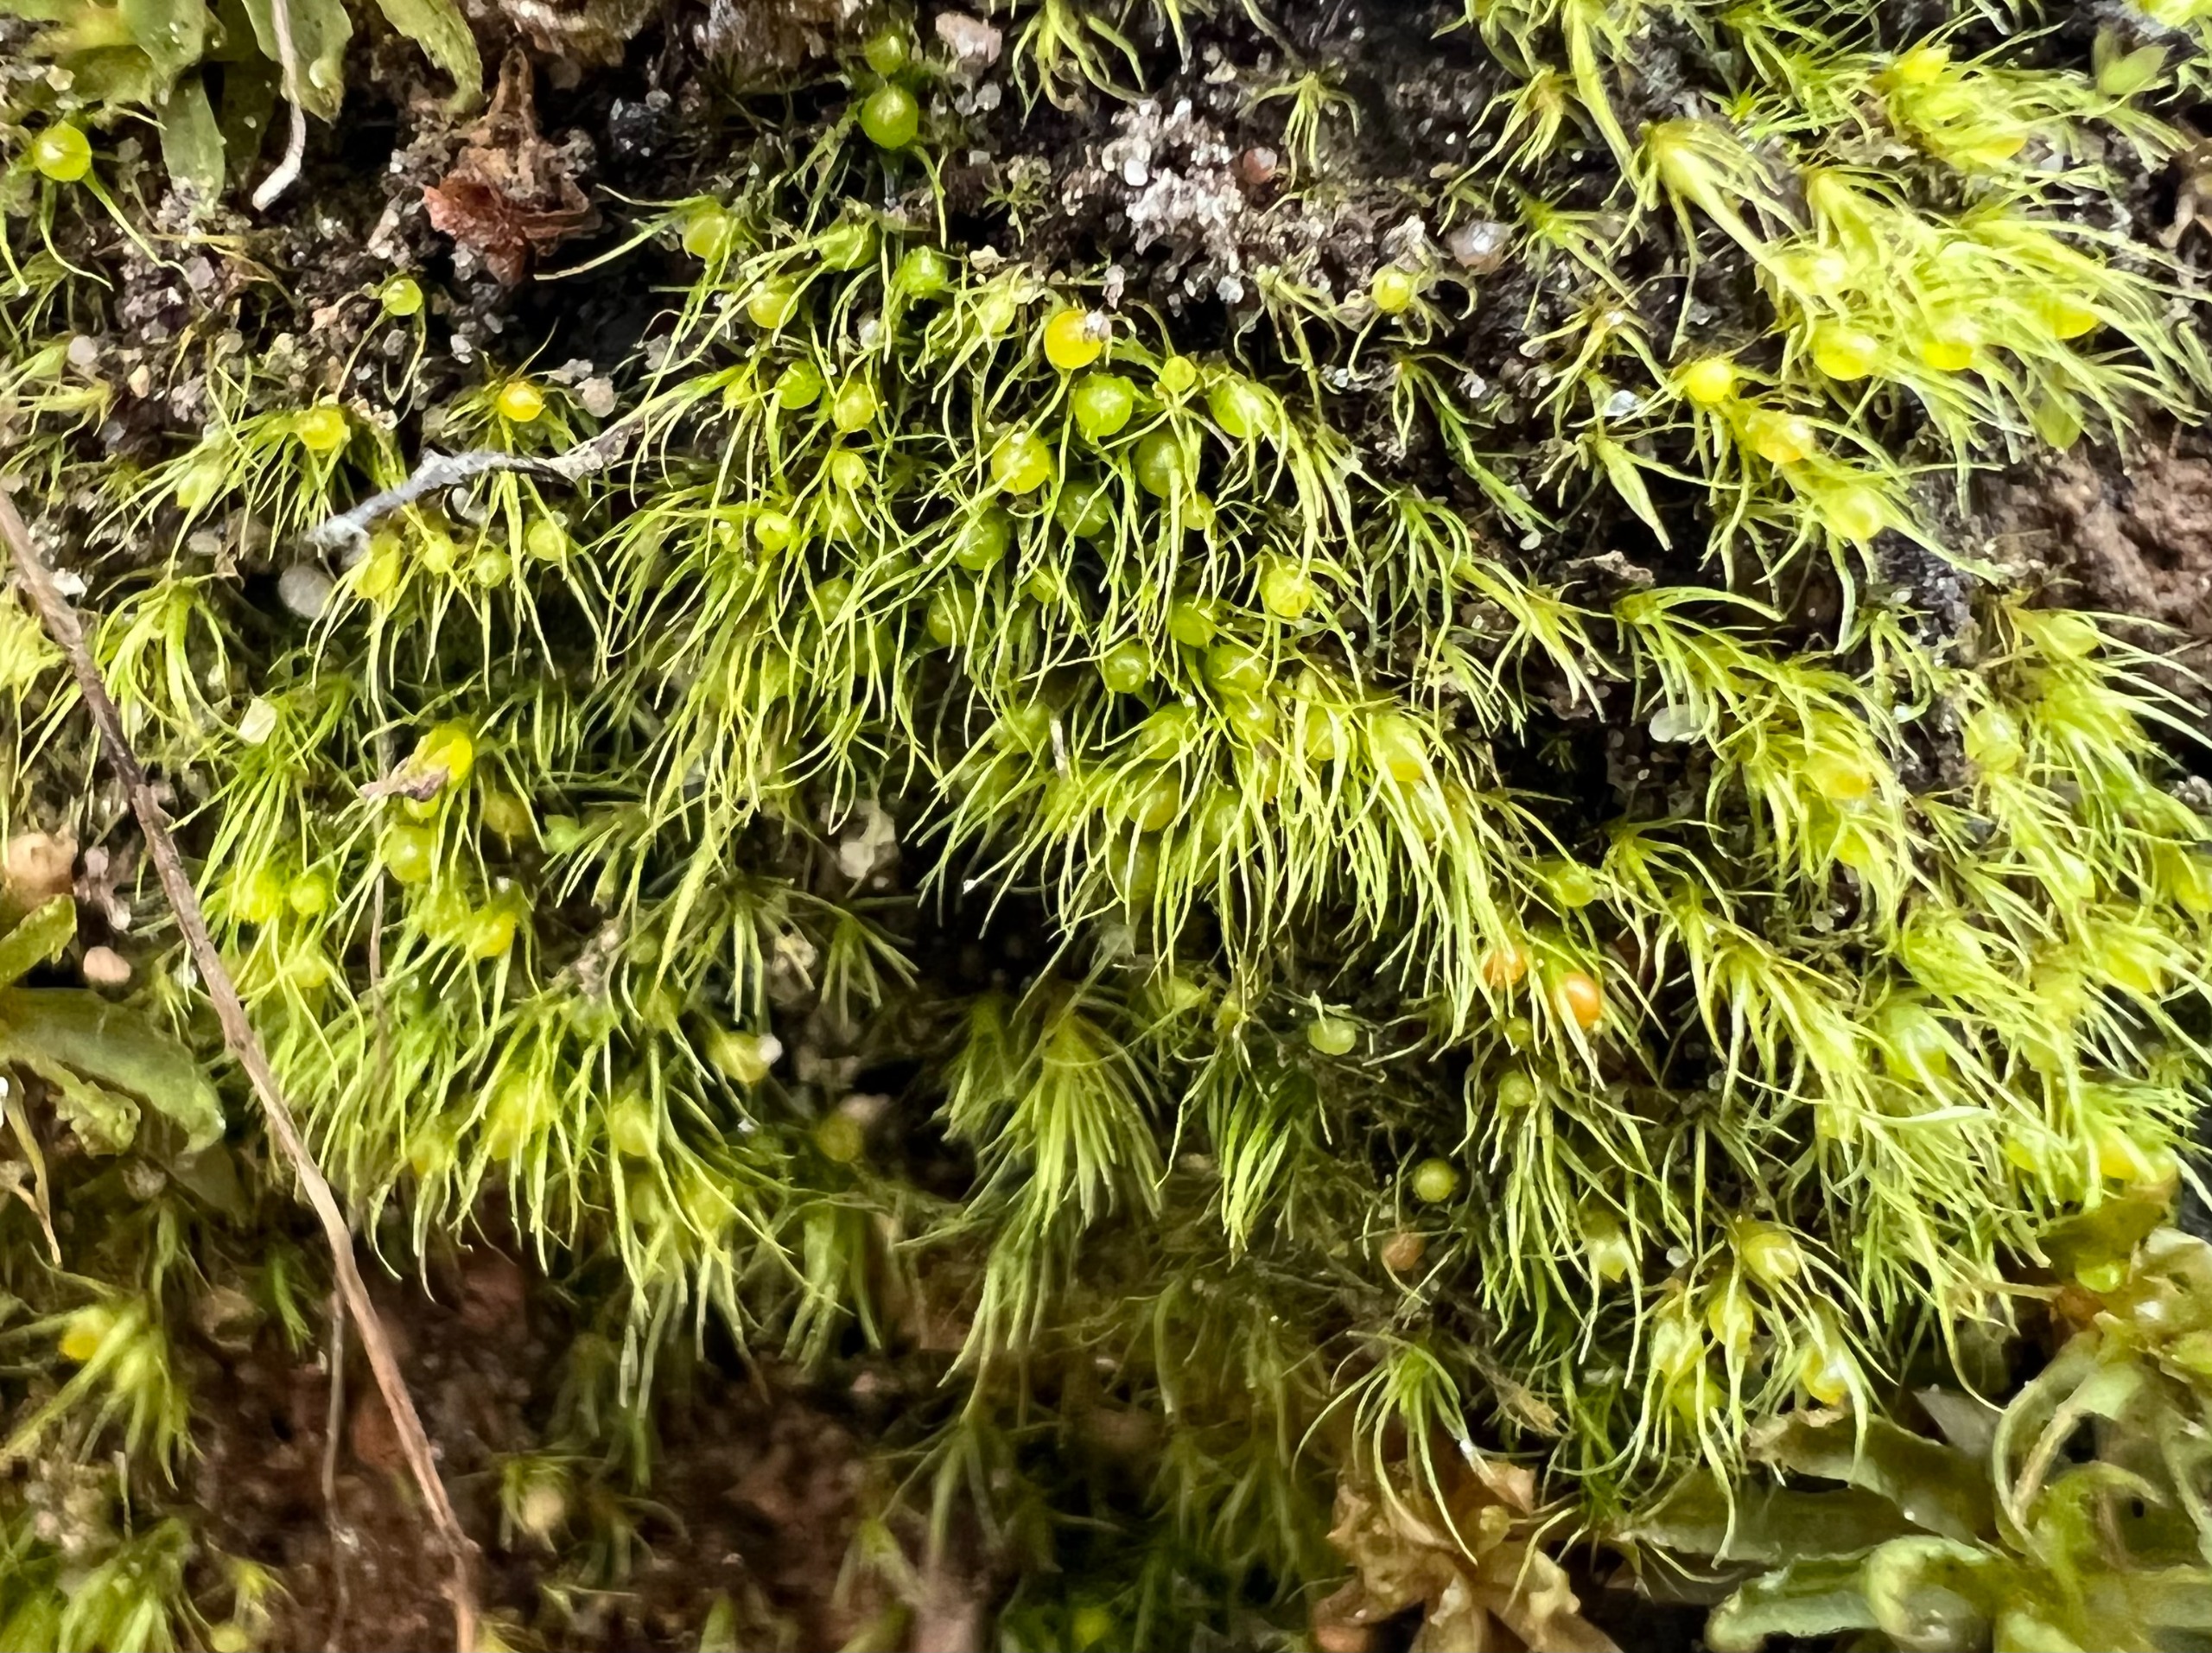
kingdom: Plantae
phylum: Bryophyta
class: Bryopsida
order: Dicranales
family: Ditrichaceae
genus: Pleuridium
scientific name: Pleuridium acuminatum
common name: Siddende sylbladsmos
